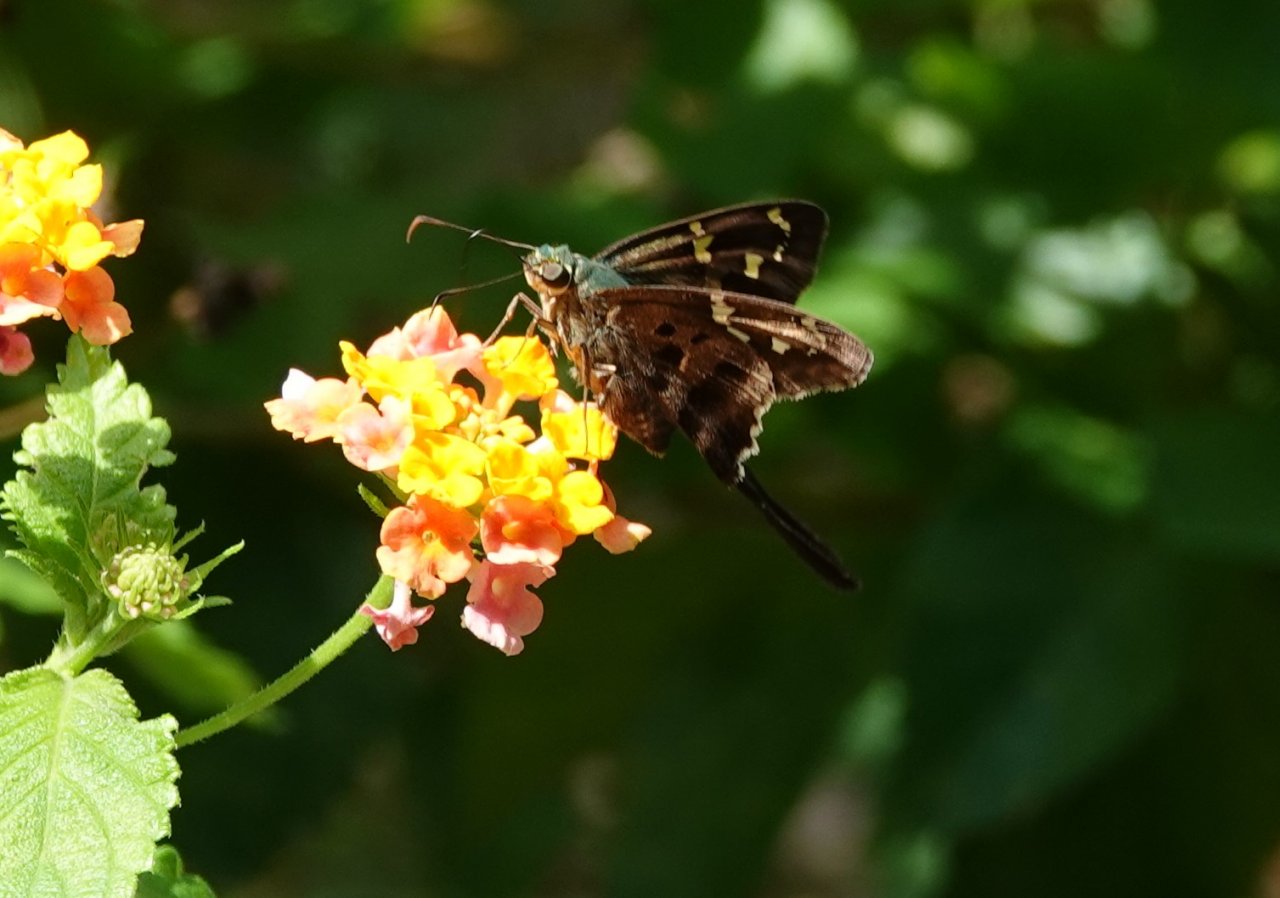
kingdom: Animalia
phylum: Arthropoda
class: Insecta
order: Lepidoptera
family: Hesperiidae
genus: Urbanus
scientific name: Urbanus proteus
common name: Long-tailed Skipper
